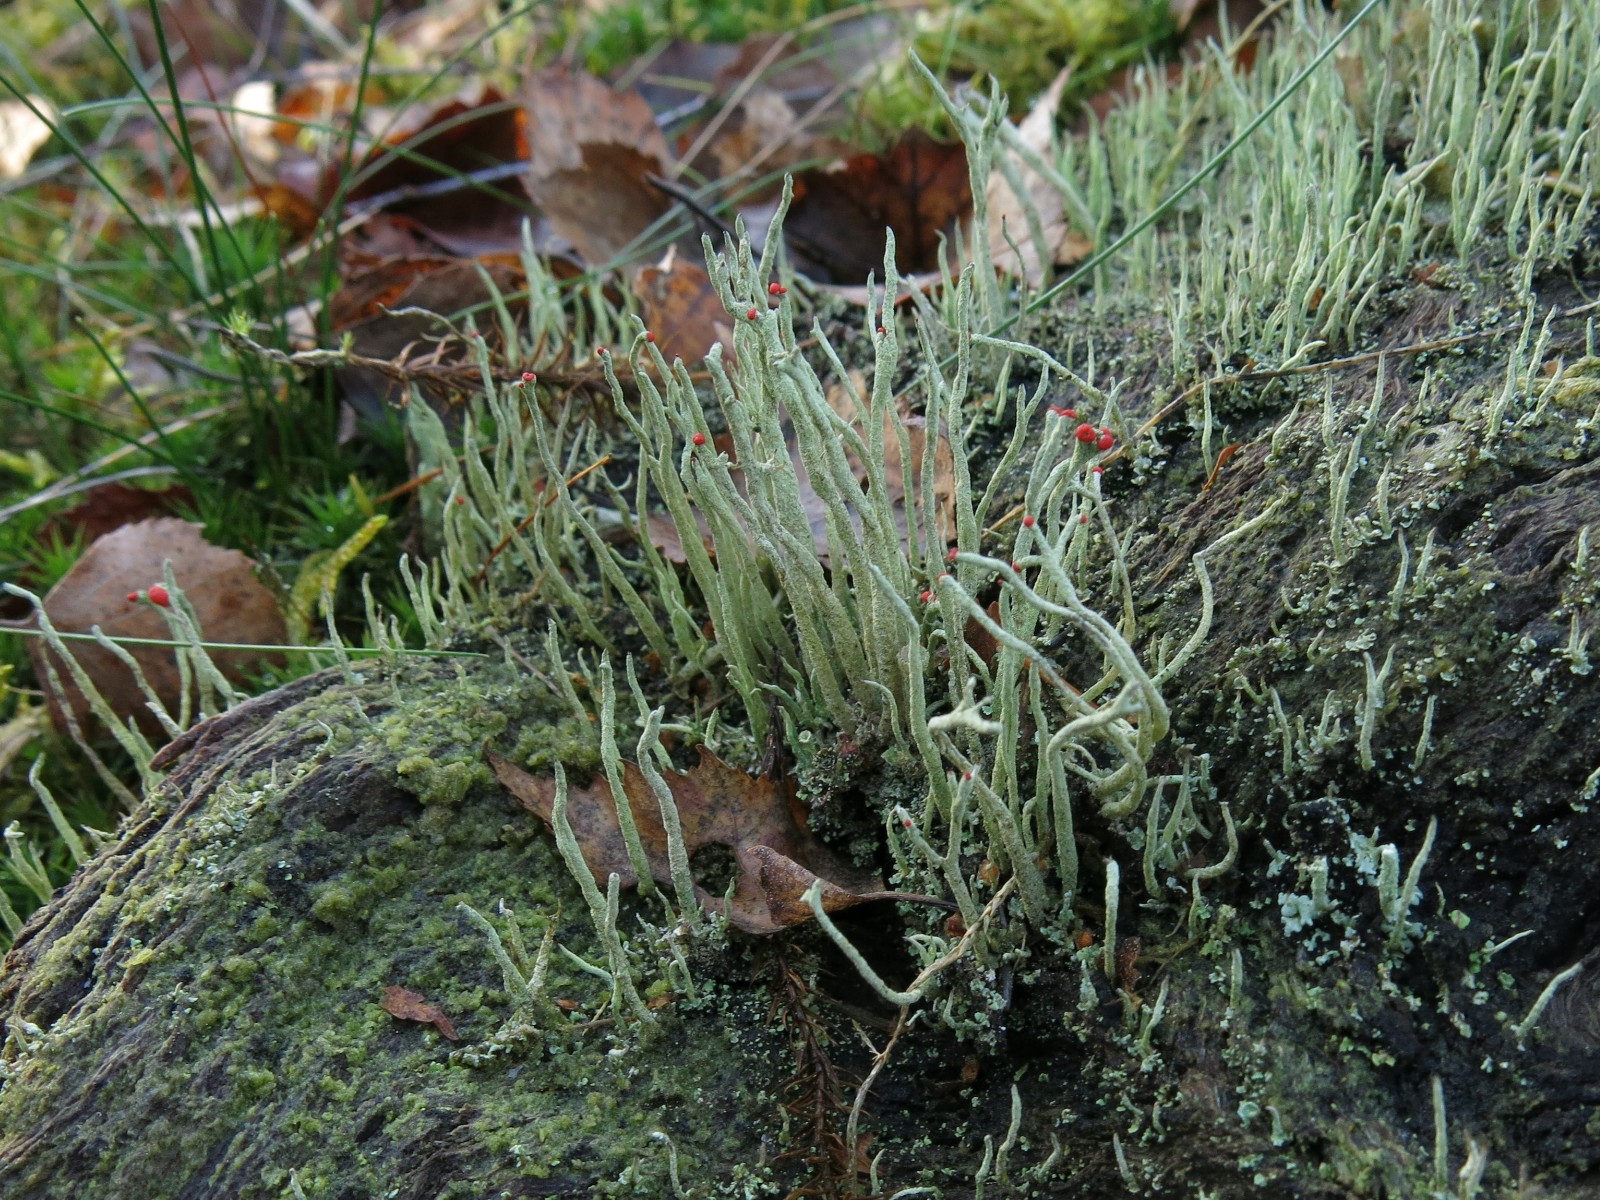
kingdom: Fungi
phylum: Ascomycota
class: Lecanoromycetes
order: Lecanorales
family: Cladoniaceae
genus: Cladonia
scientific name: Cladonia macilenta
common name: indsvunden bægerlav
